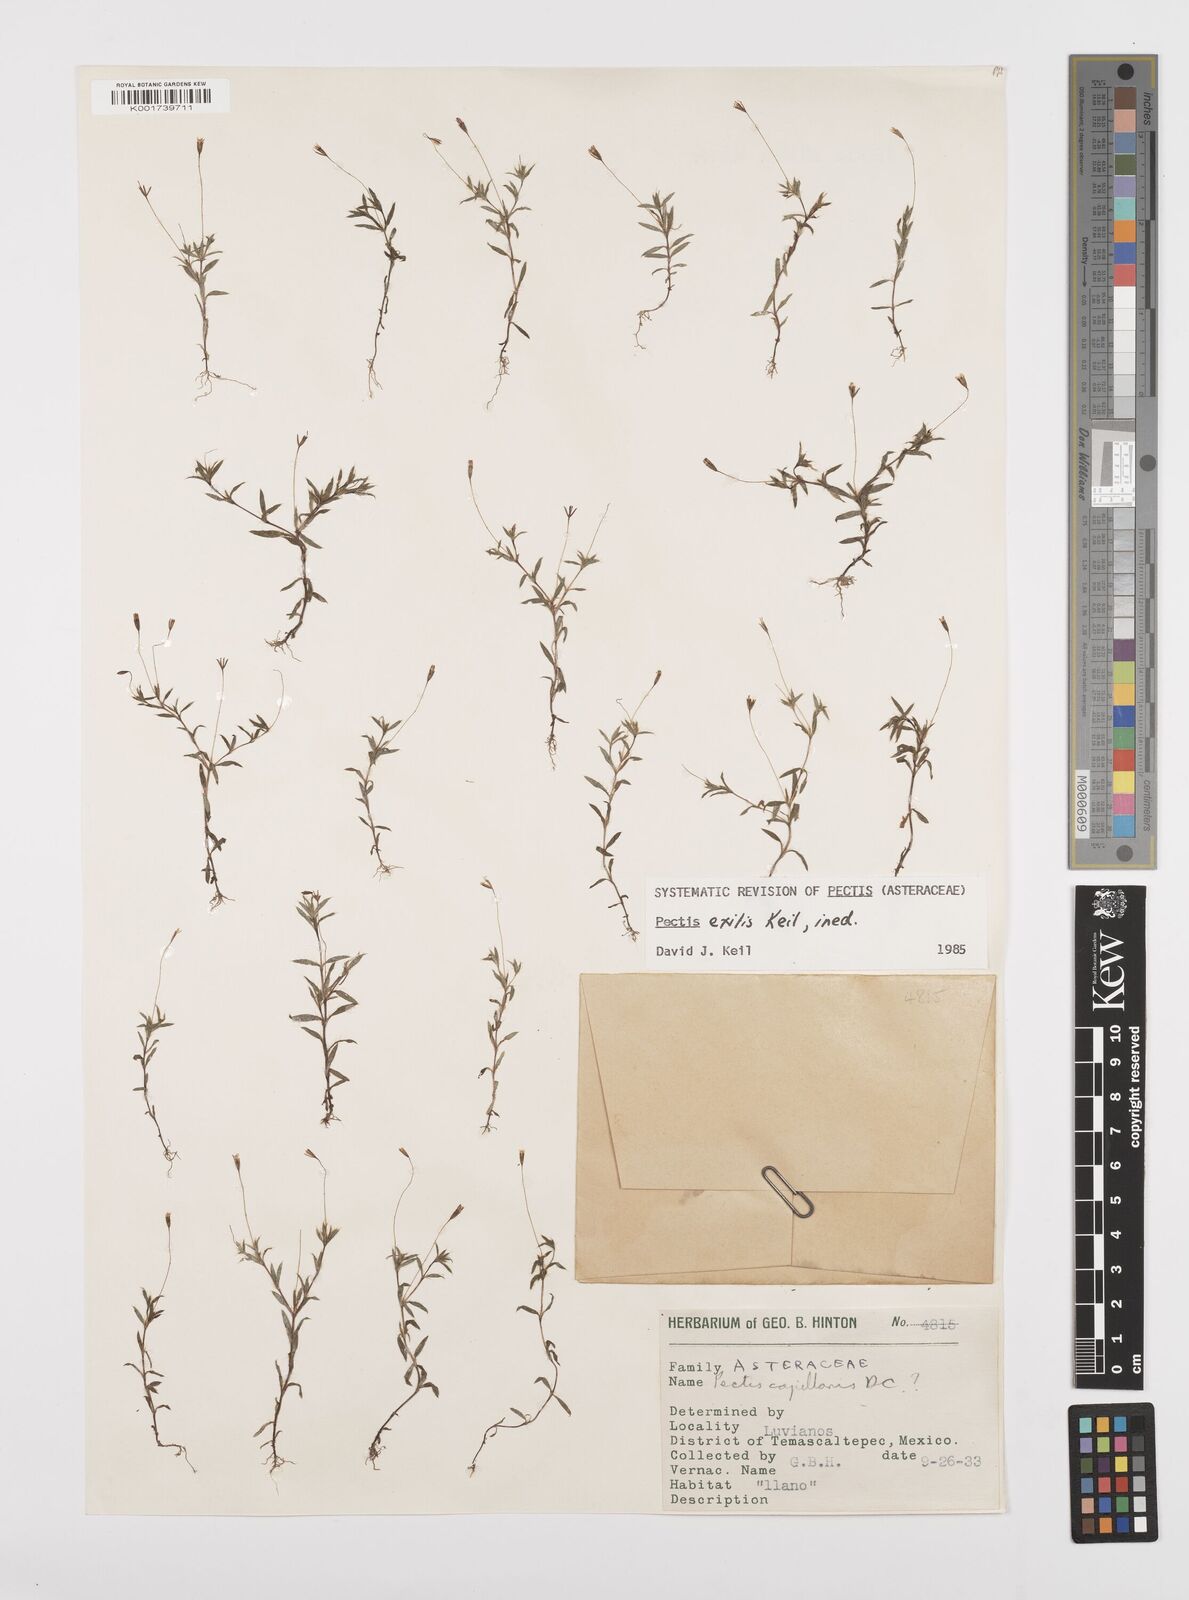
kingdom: Plantae
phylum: Tracheophyta
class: Magnoliopsida
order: Asterales
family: Asteraceae
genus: Pectis
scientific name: Pectis linearis
